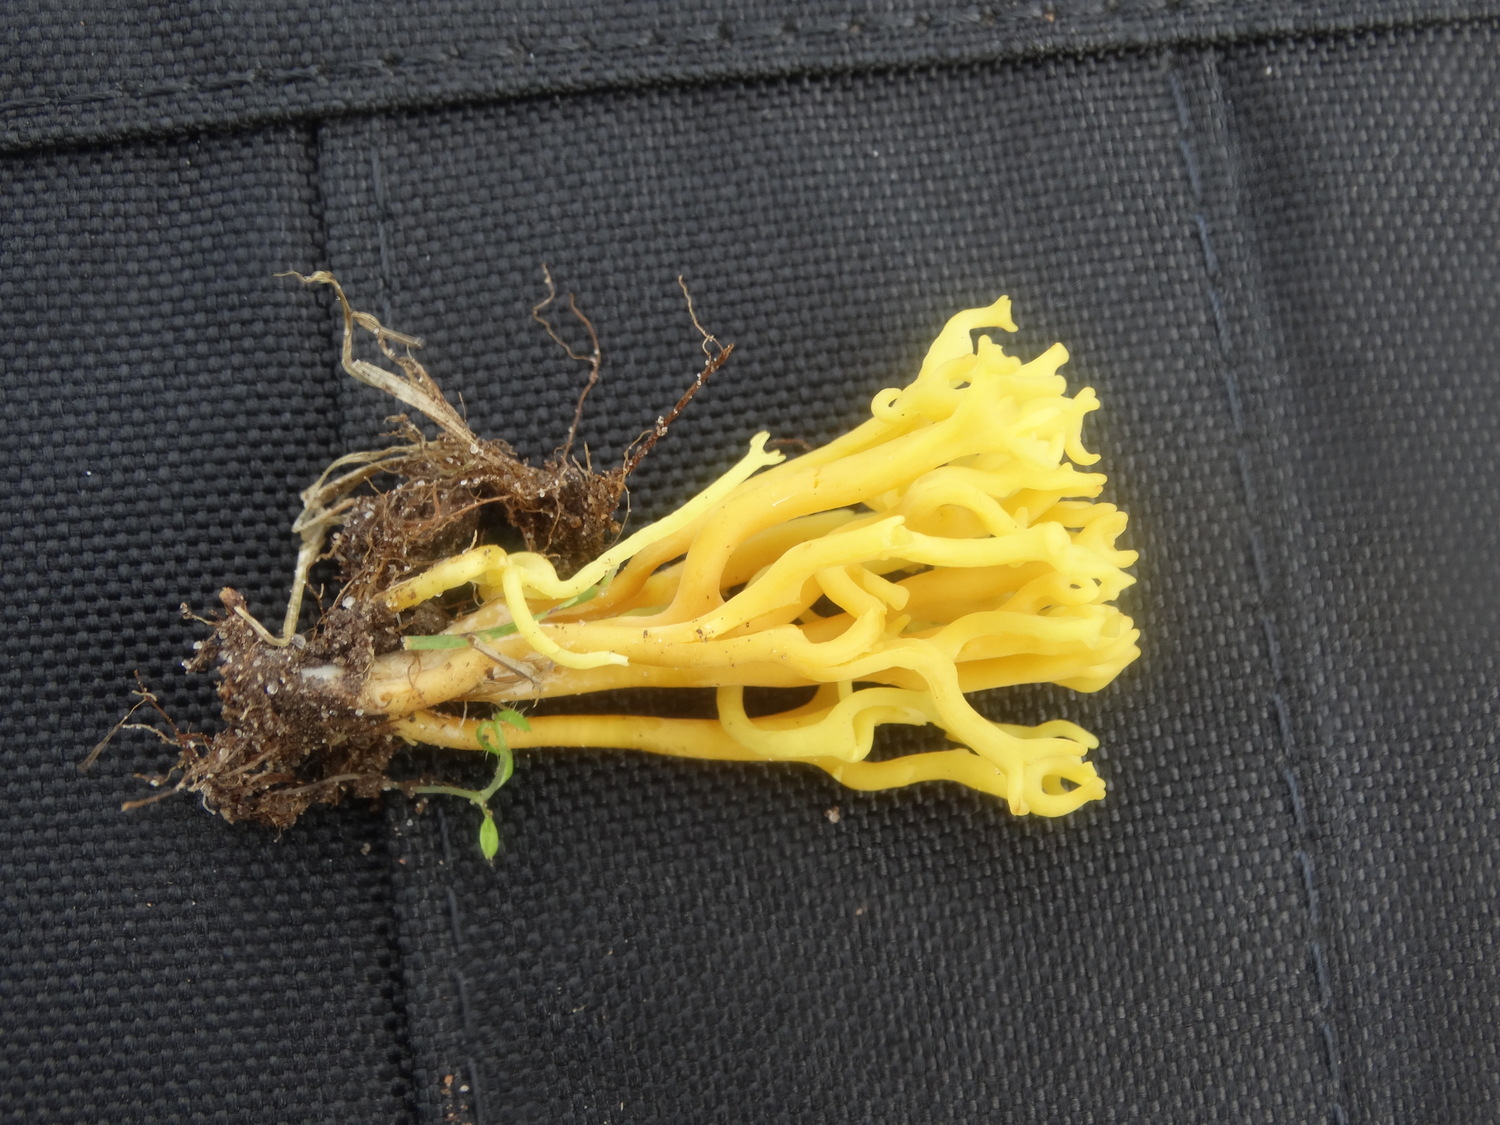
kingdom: Fungi
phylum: Basidiomycota
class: Agaricomycetes
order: Agaricales
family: Clavariaceae
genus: Clavulinopsis
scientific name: Clavulinopsis corniculata
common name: eng-køllesvamp
